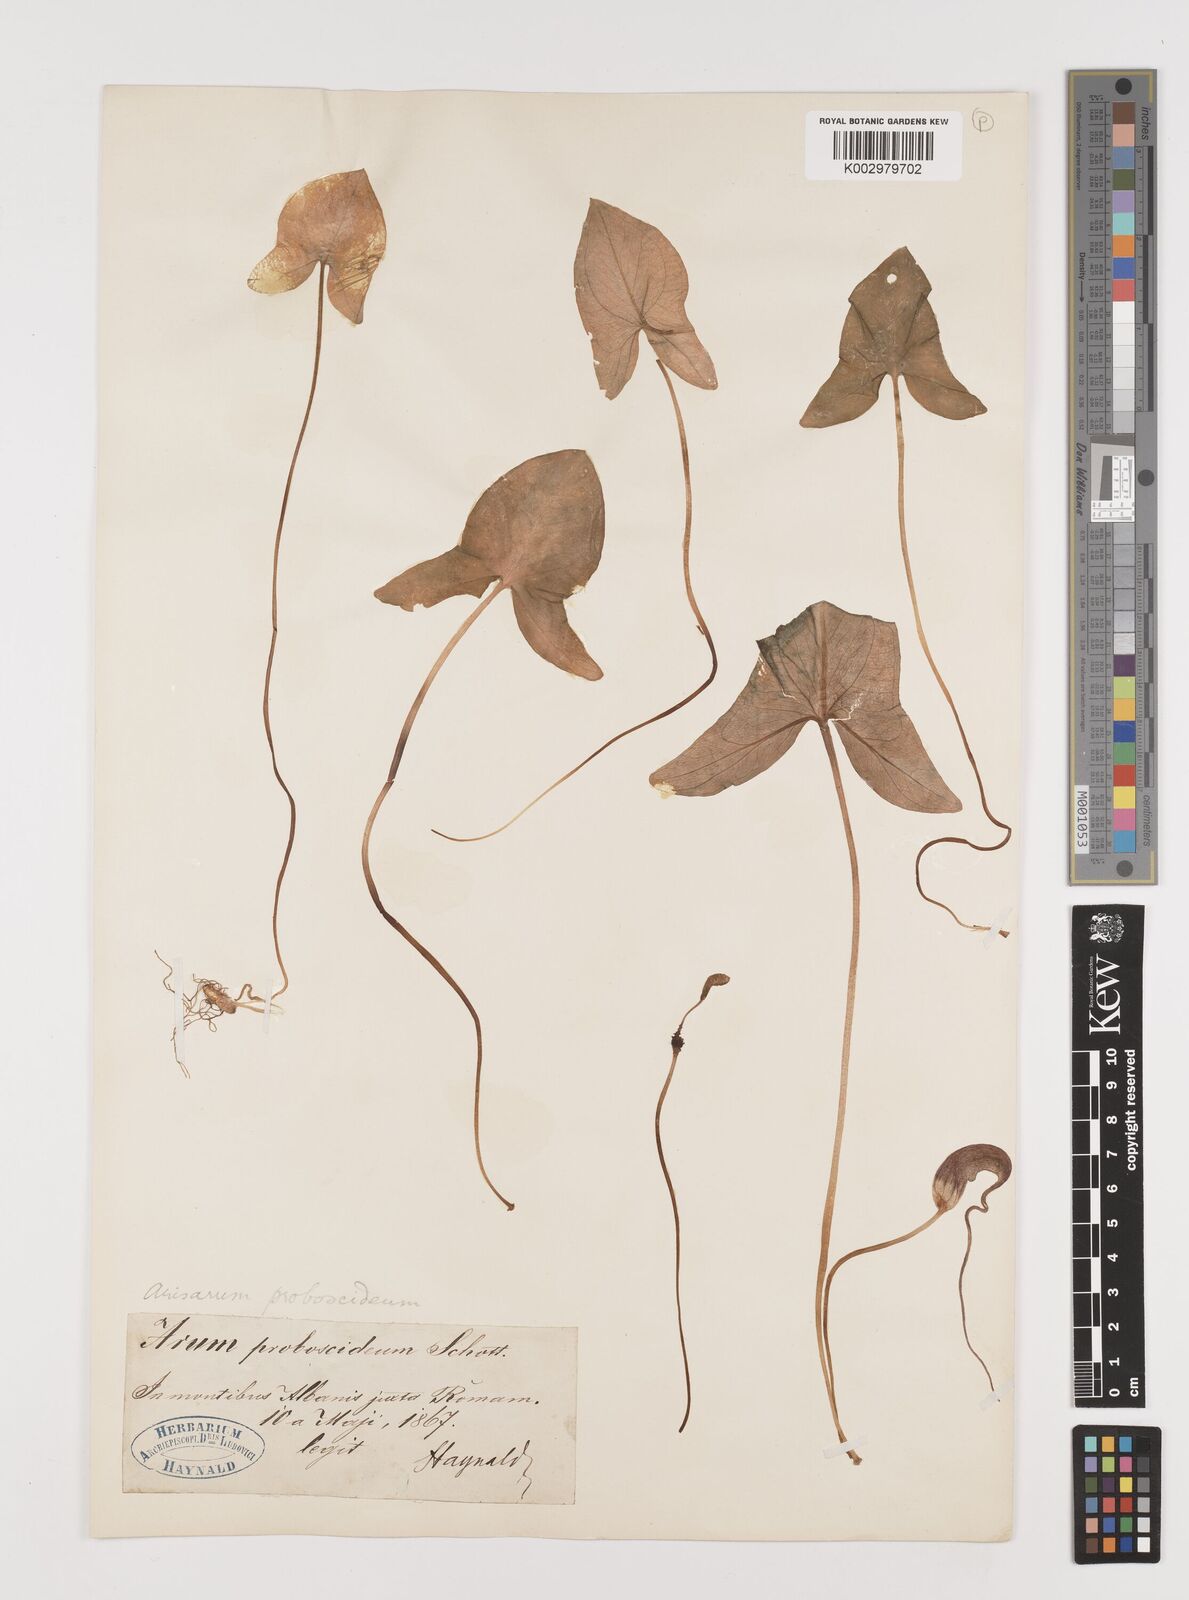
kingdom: Plantae
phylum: Tracheophyta
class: Liliopsida
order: Alismatales
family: Araceae
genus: Arisarum
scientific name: Arisarum proboscideum
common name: Mousetailplant
